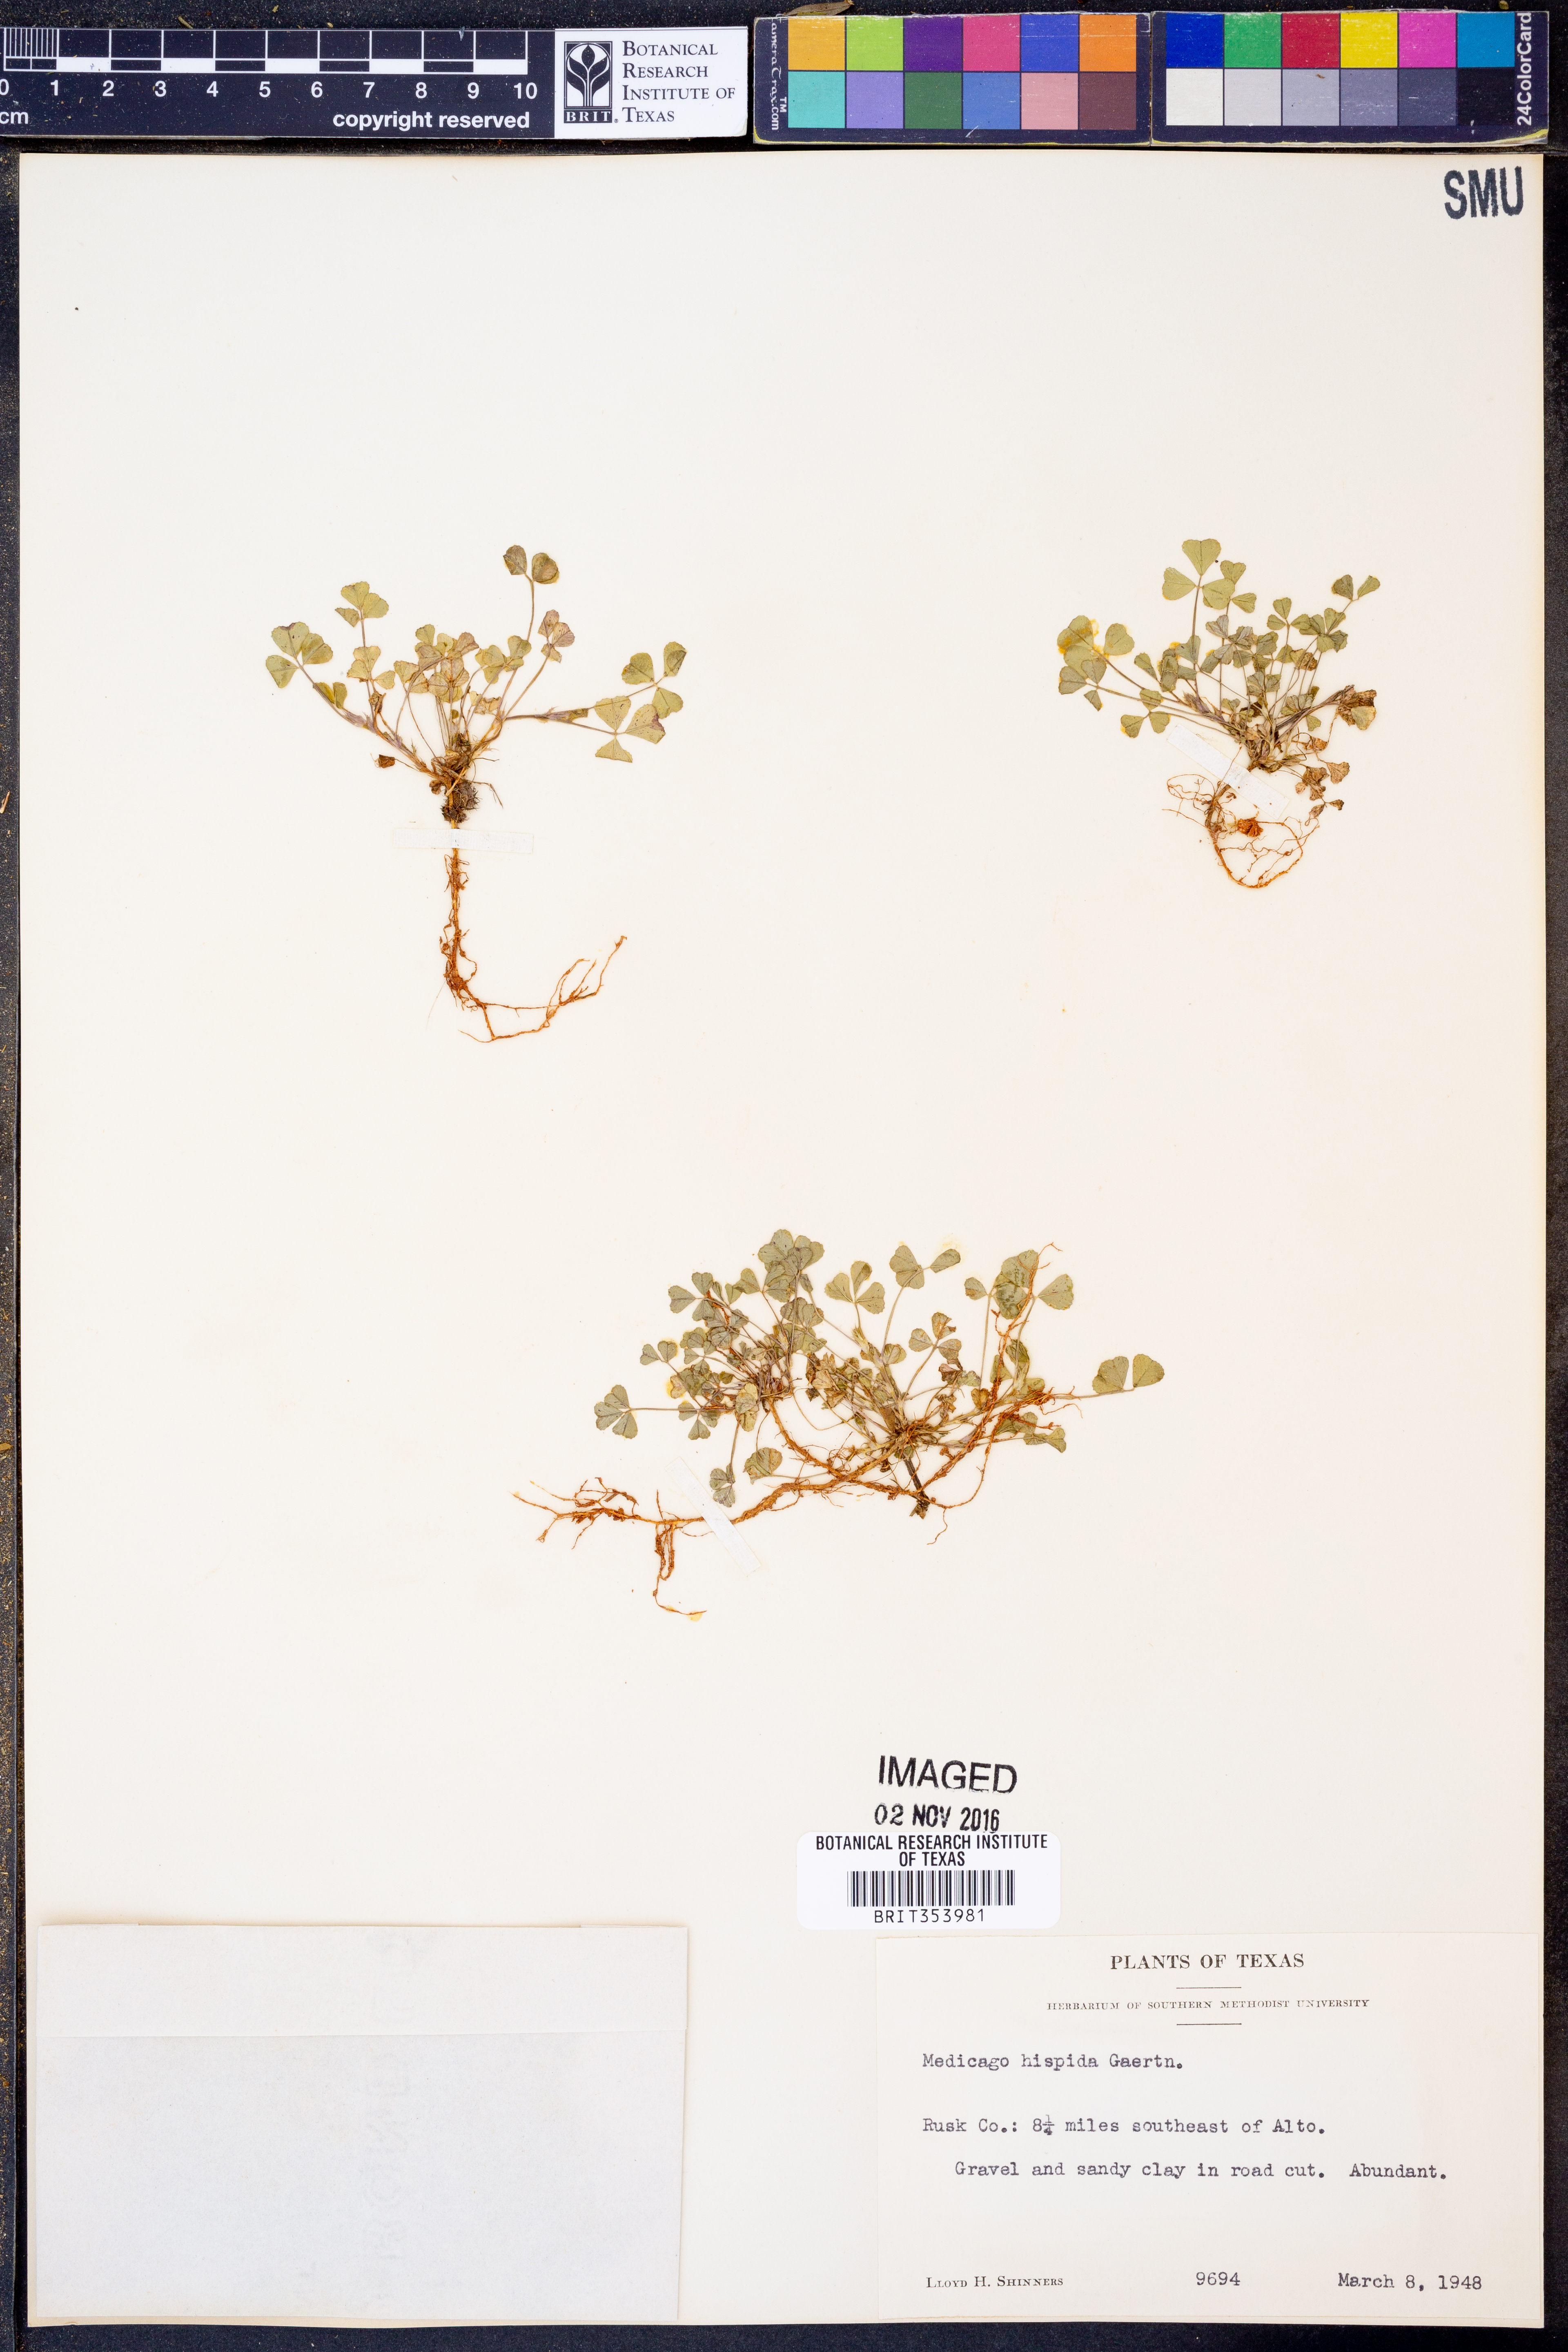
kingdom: Plantae
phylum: Tracheophyta
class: Magnoliopsida
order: Fabales
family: Fabaceae
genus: Medicago
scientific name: Medicago polymorpha
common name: Burclover
